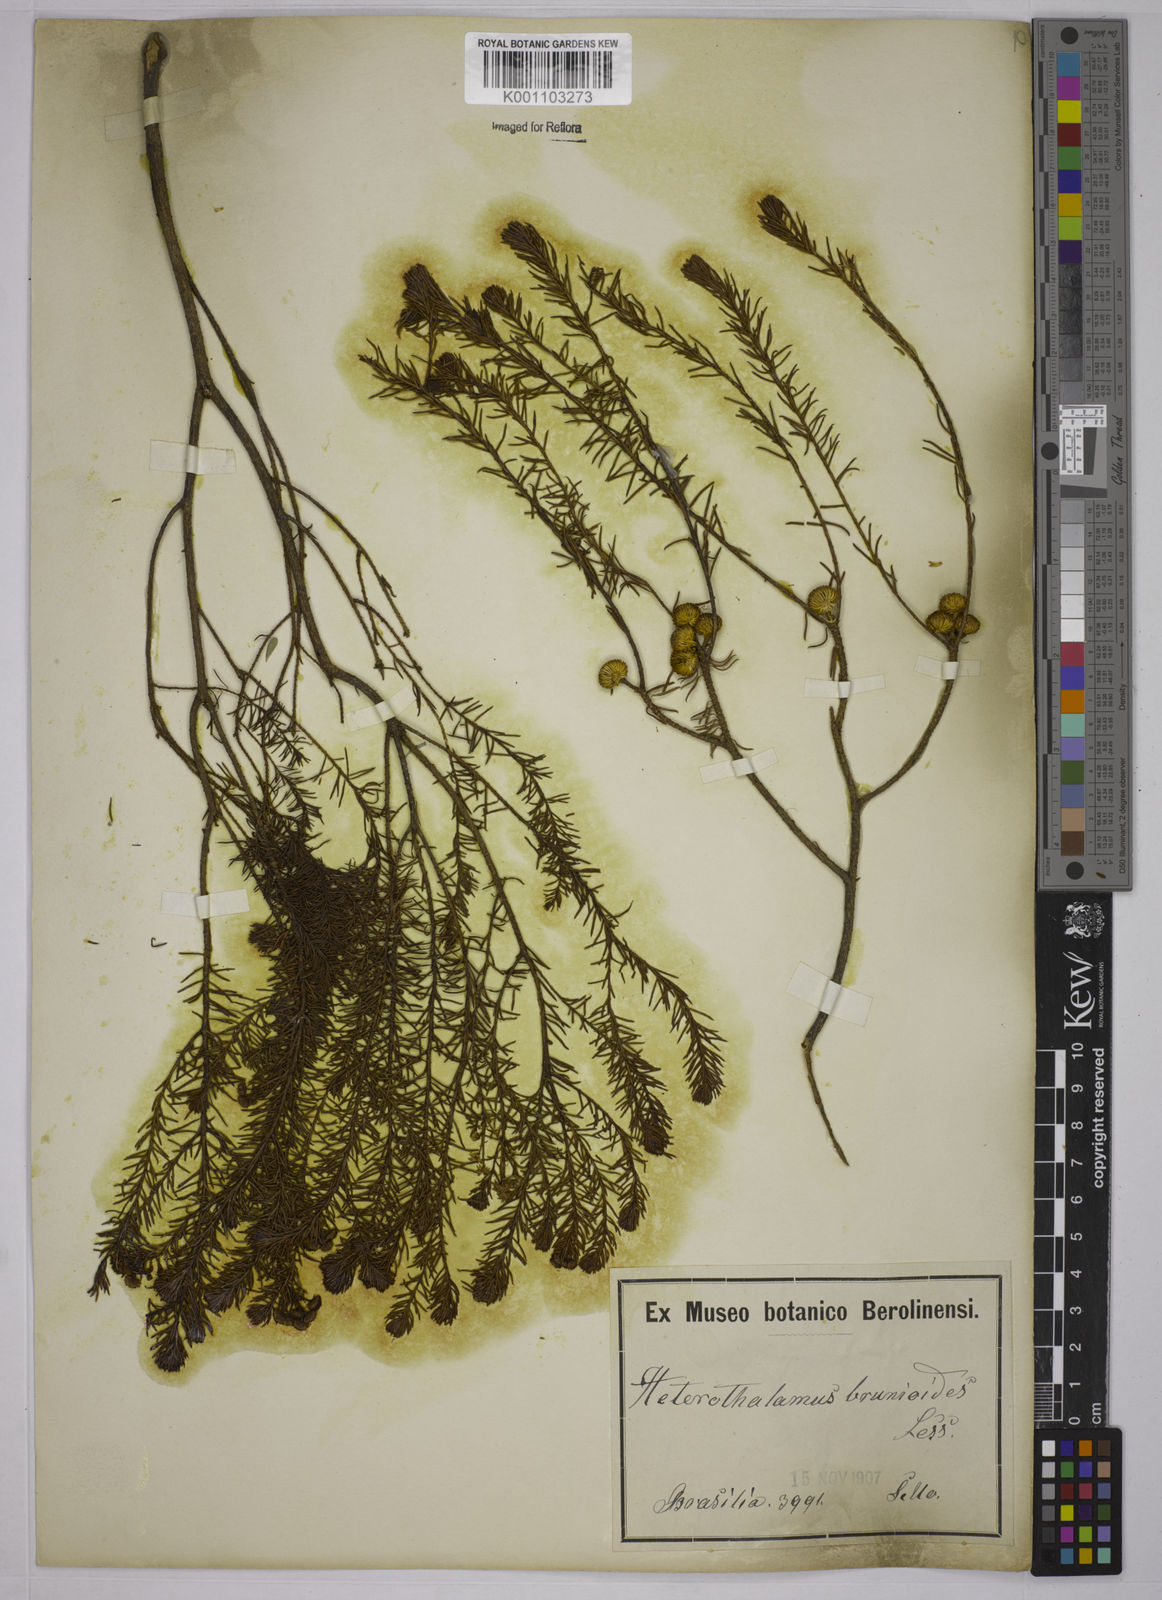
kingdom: Plantae
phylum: Tracheophyta
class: Magnoliopsida
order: Asterales
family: Asteraceae
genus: Baccharis
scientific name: Baccharis aliena
